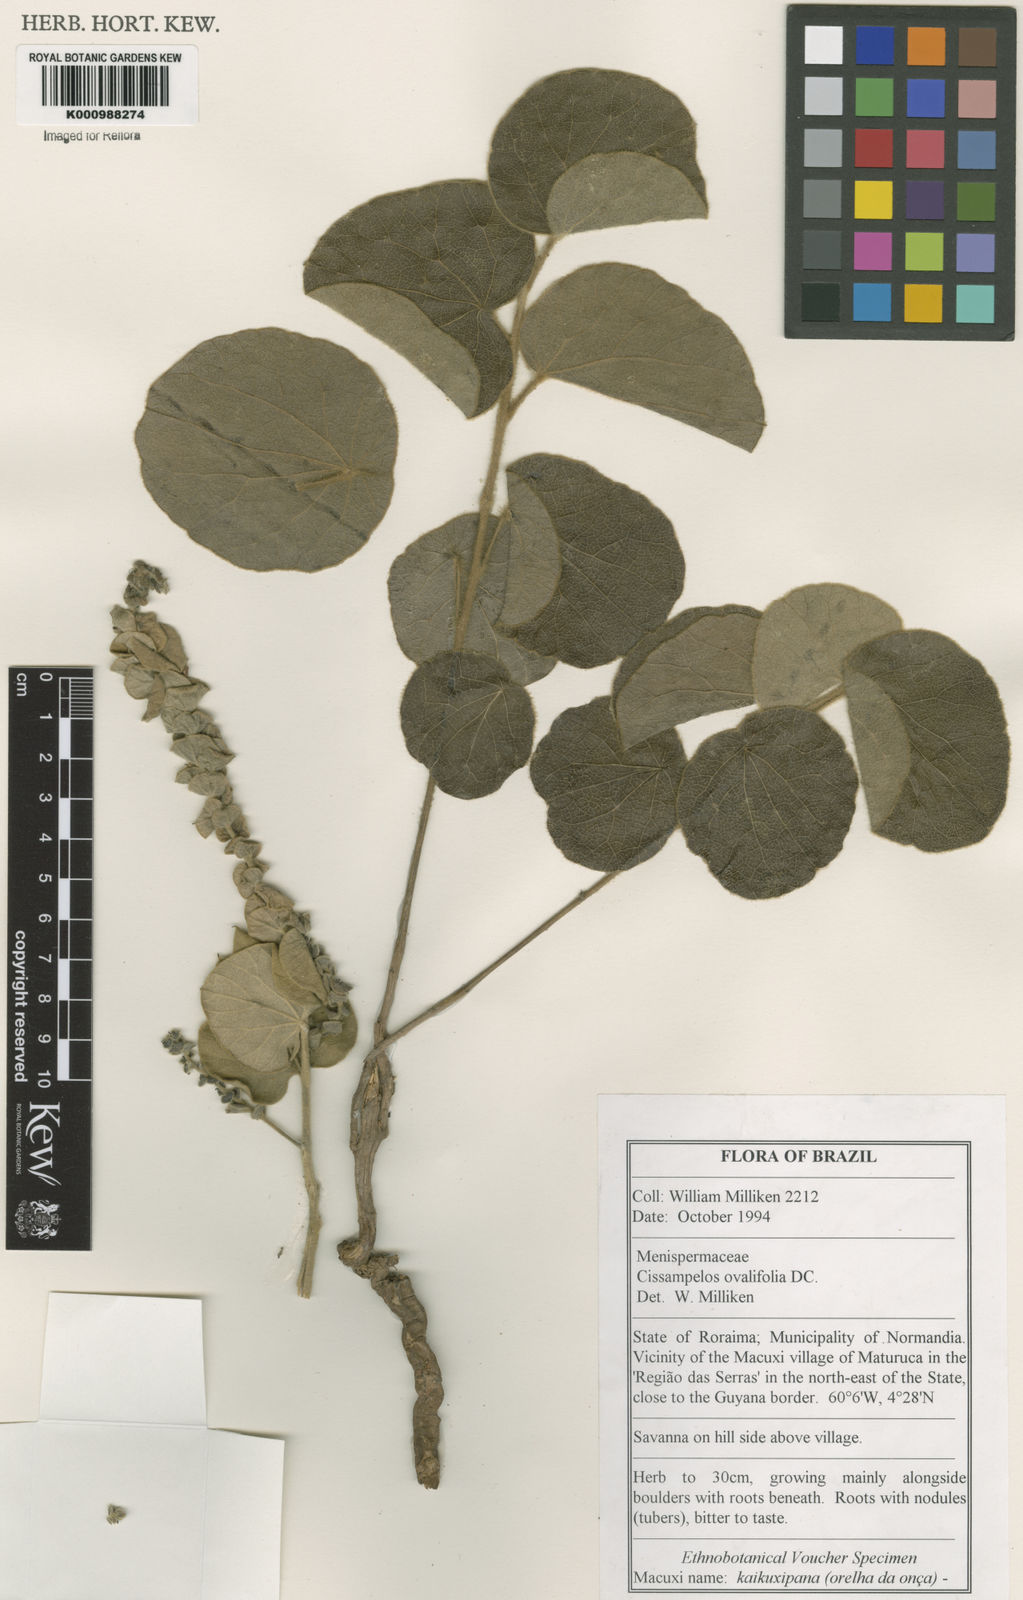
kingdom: Plantae
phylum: Tracheophyta
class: Magnoliopsida
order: Ranunculales
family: Menispermaceae
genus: Cissampelos
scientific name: Cissampelos ovalifolia
